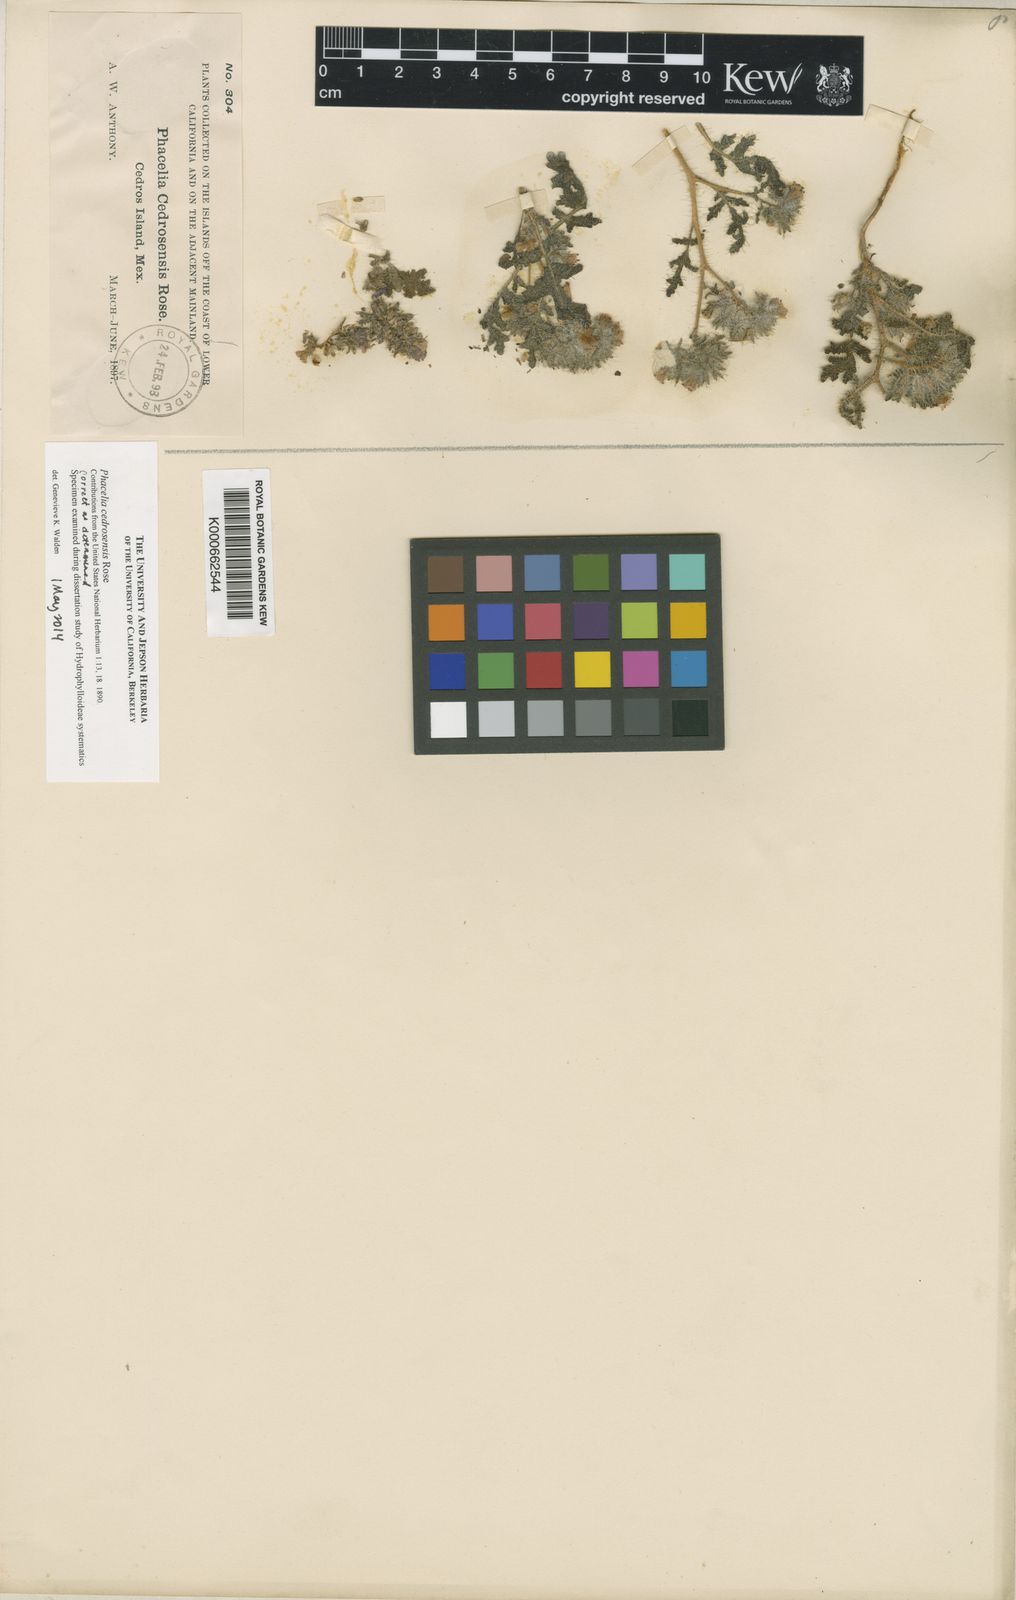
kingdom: Plantae
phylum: Tracheophyta
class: Magnoliopsida
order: Boraginales
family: Hydrophyllaceae
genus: Phacelia
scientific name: Phacelia cedrosensis
